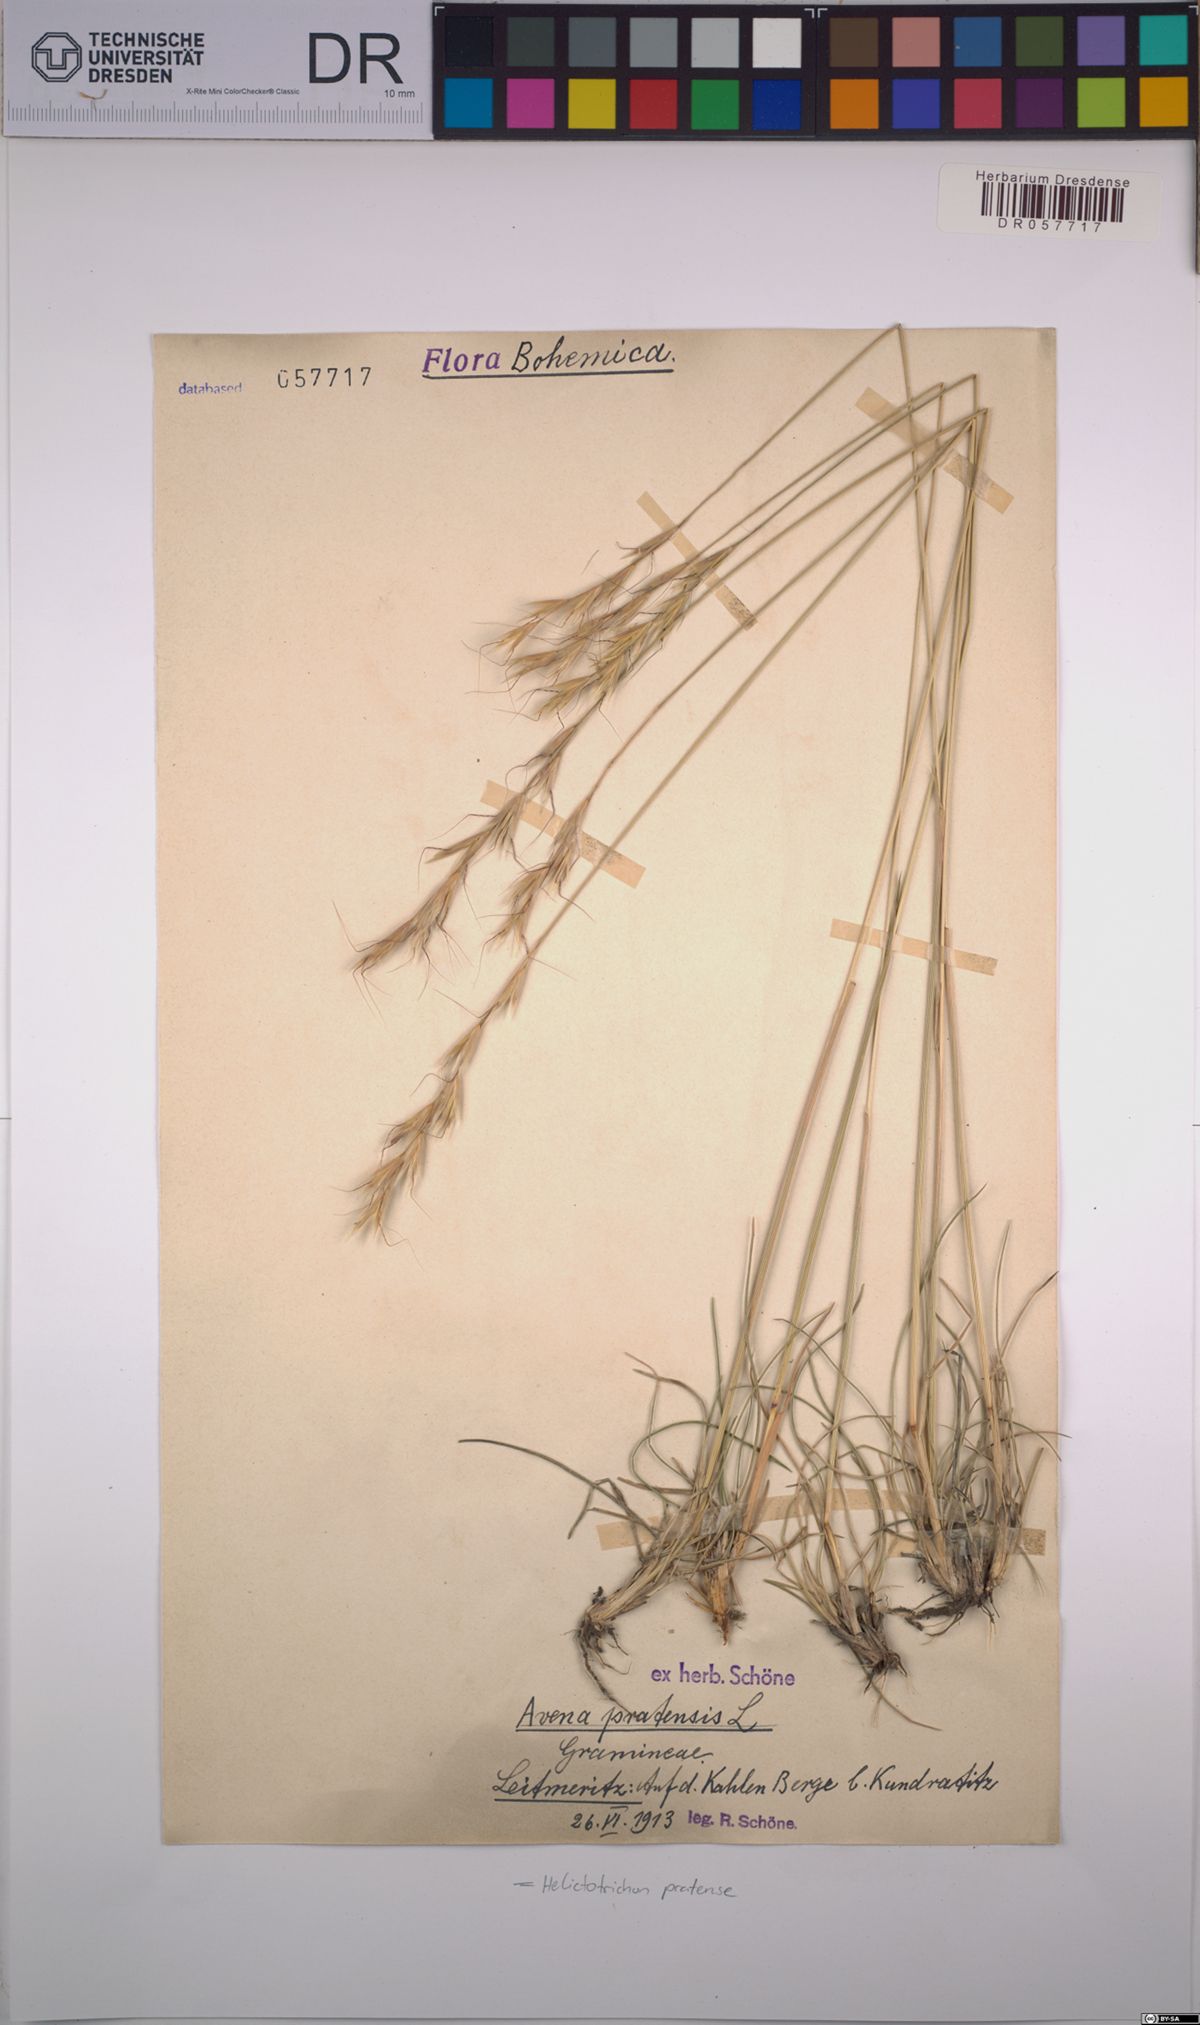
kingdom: Plantae
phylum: Tracheophyta
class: Liliopsida
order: Poales
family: Poaceae
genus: Helictochloa
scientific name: Helictochloa pratensis
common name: Meadow oat grass
